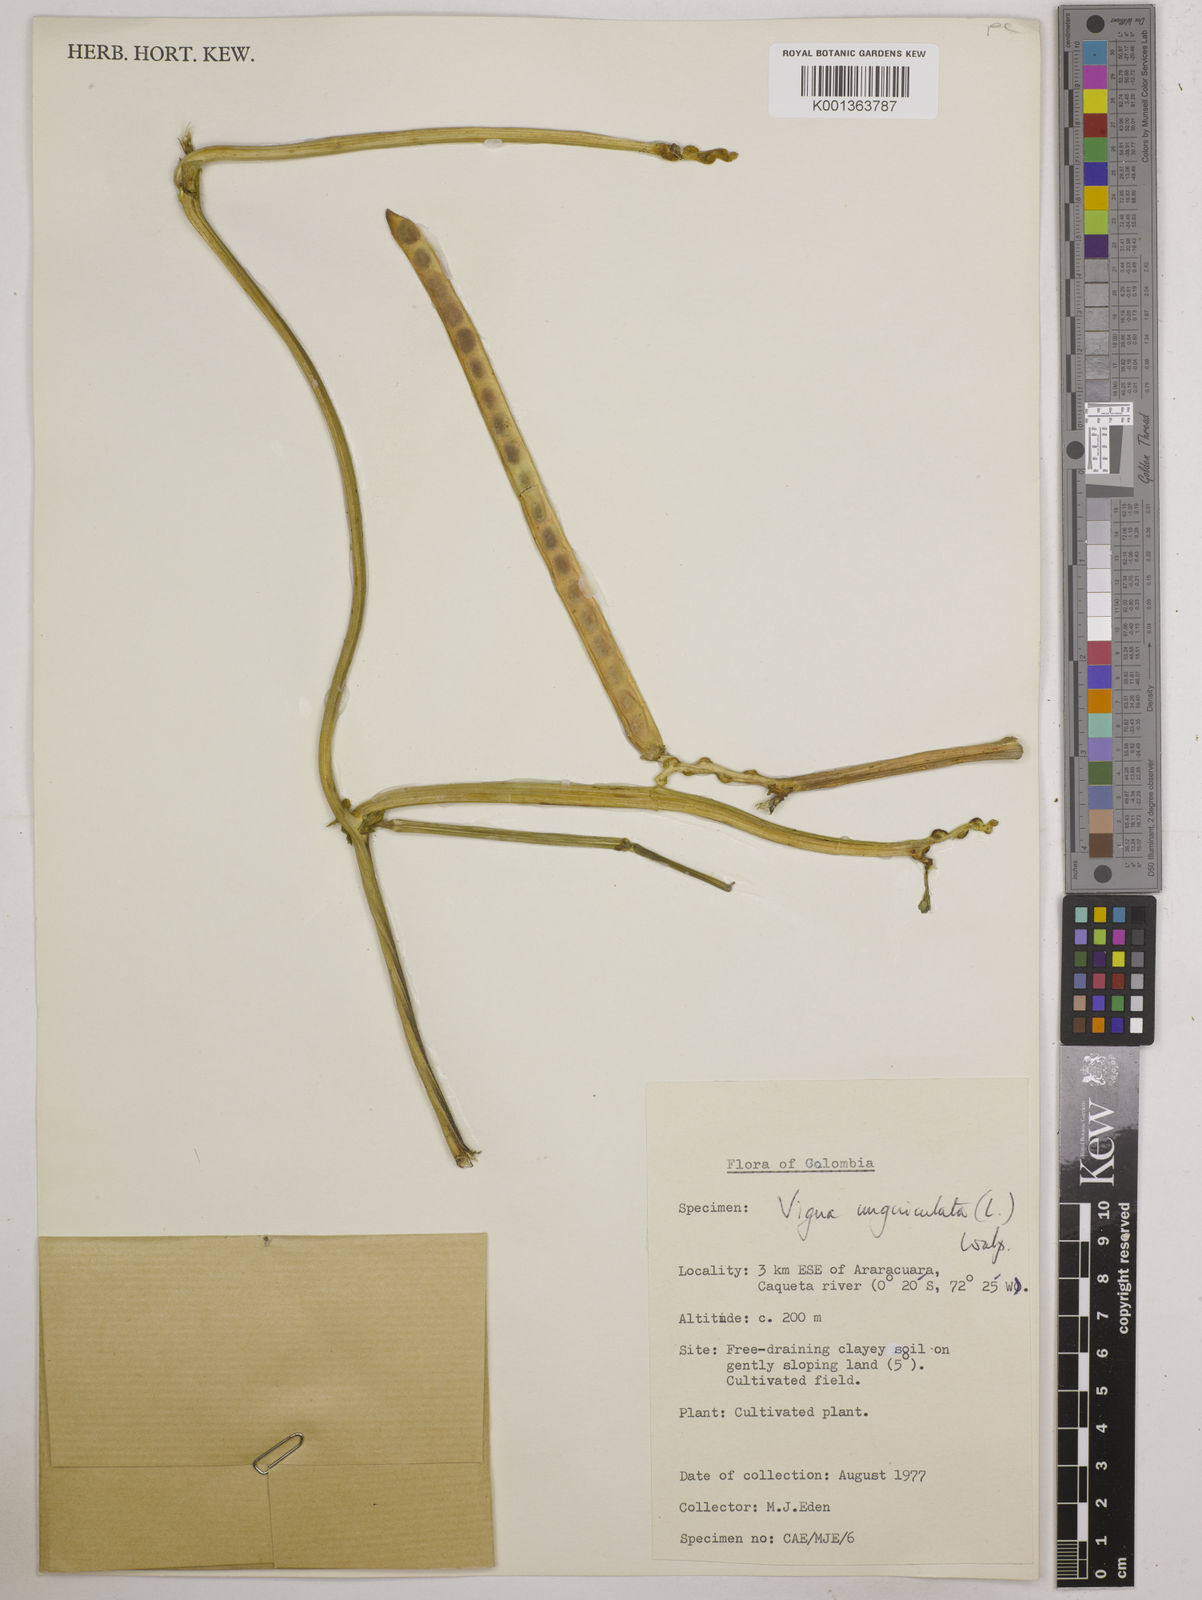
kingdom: Plantae
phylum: Tracheophyta
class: Magnoliopsida
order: Fabales
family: Fabaceae
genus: Vigna
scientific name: Vigna unguiculata
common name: Cowpea
